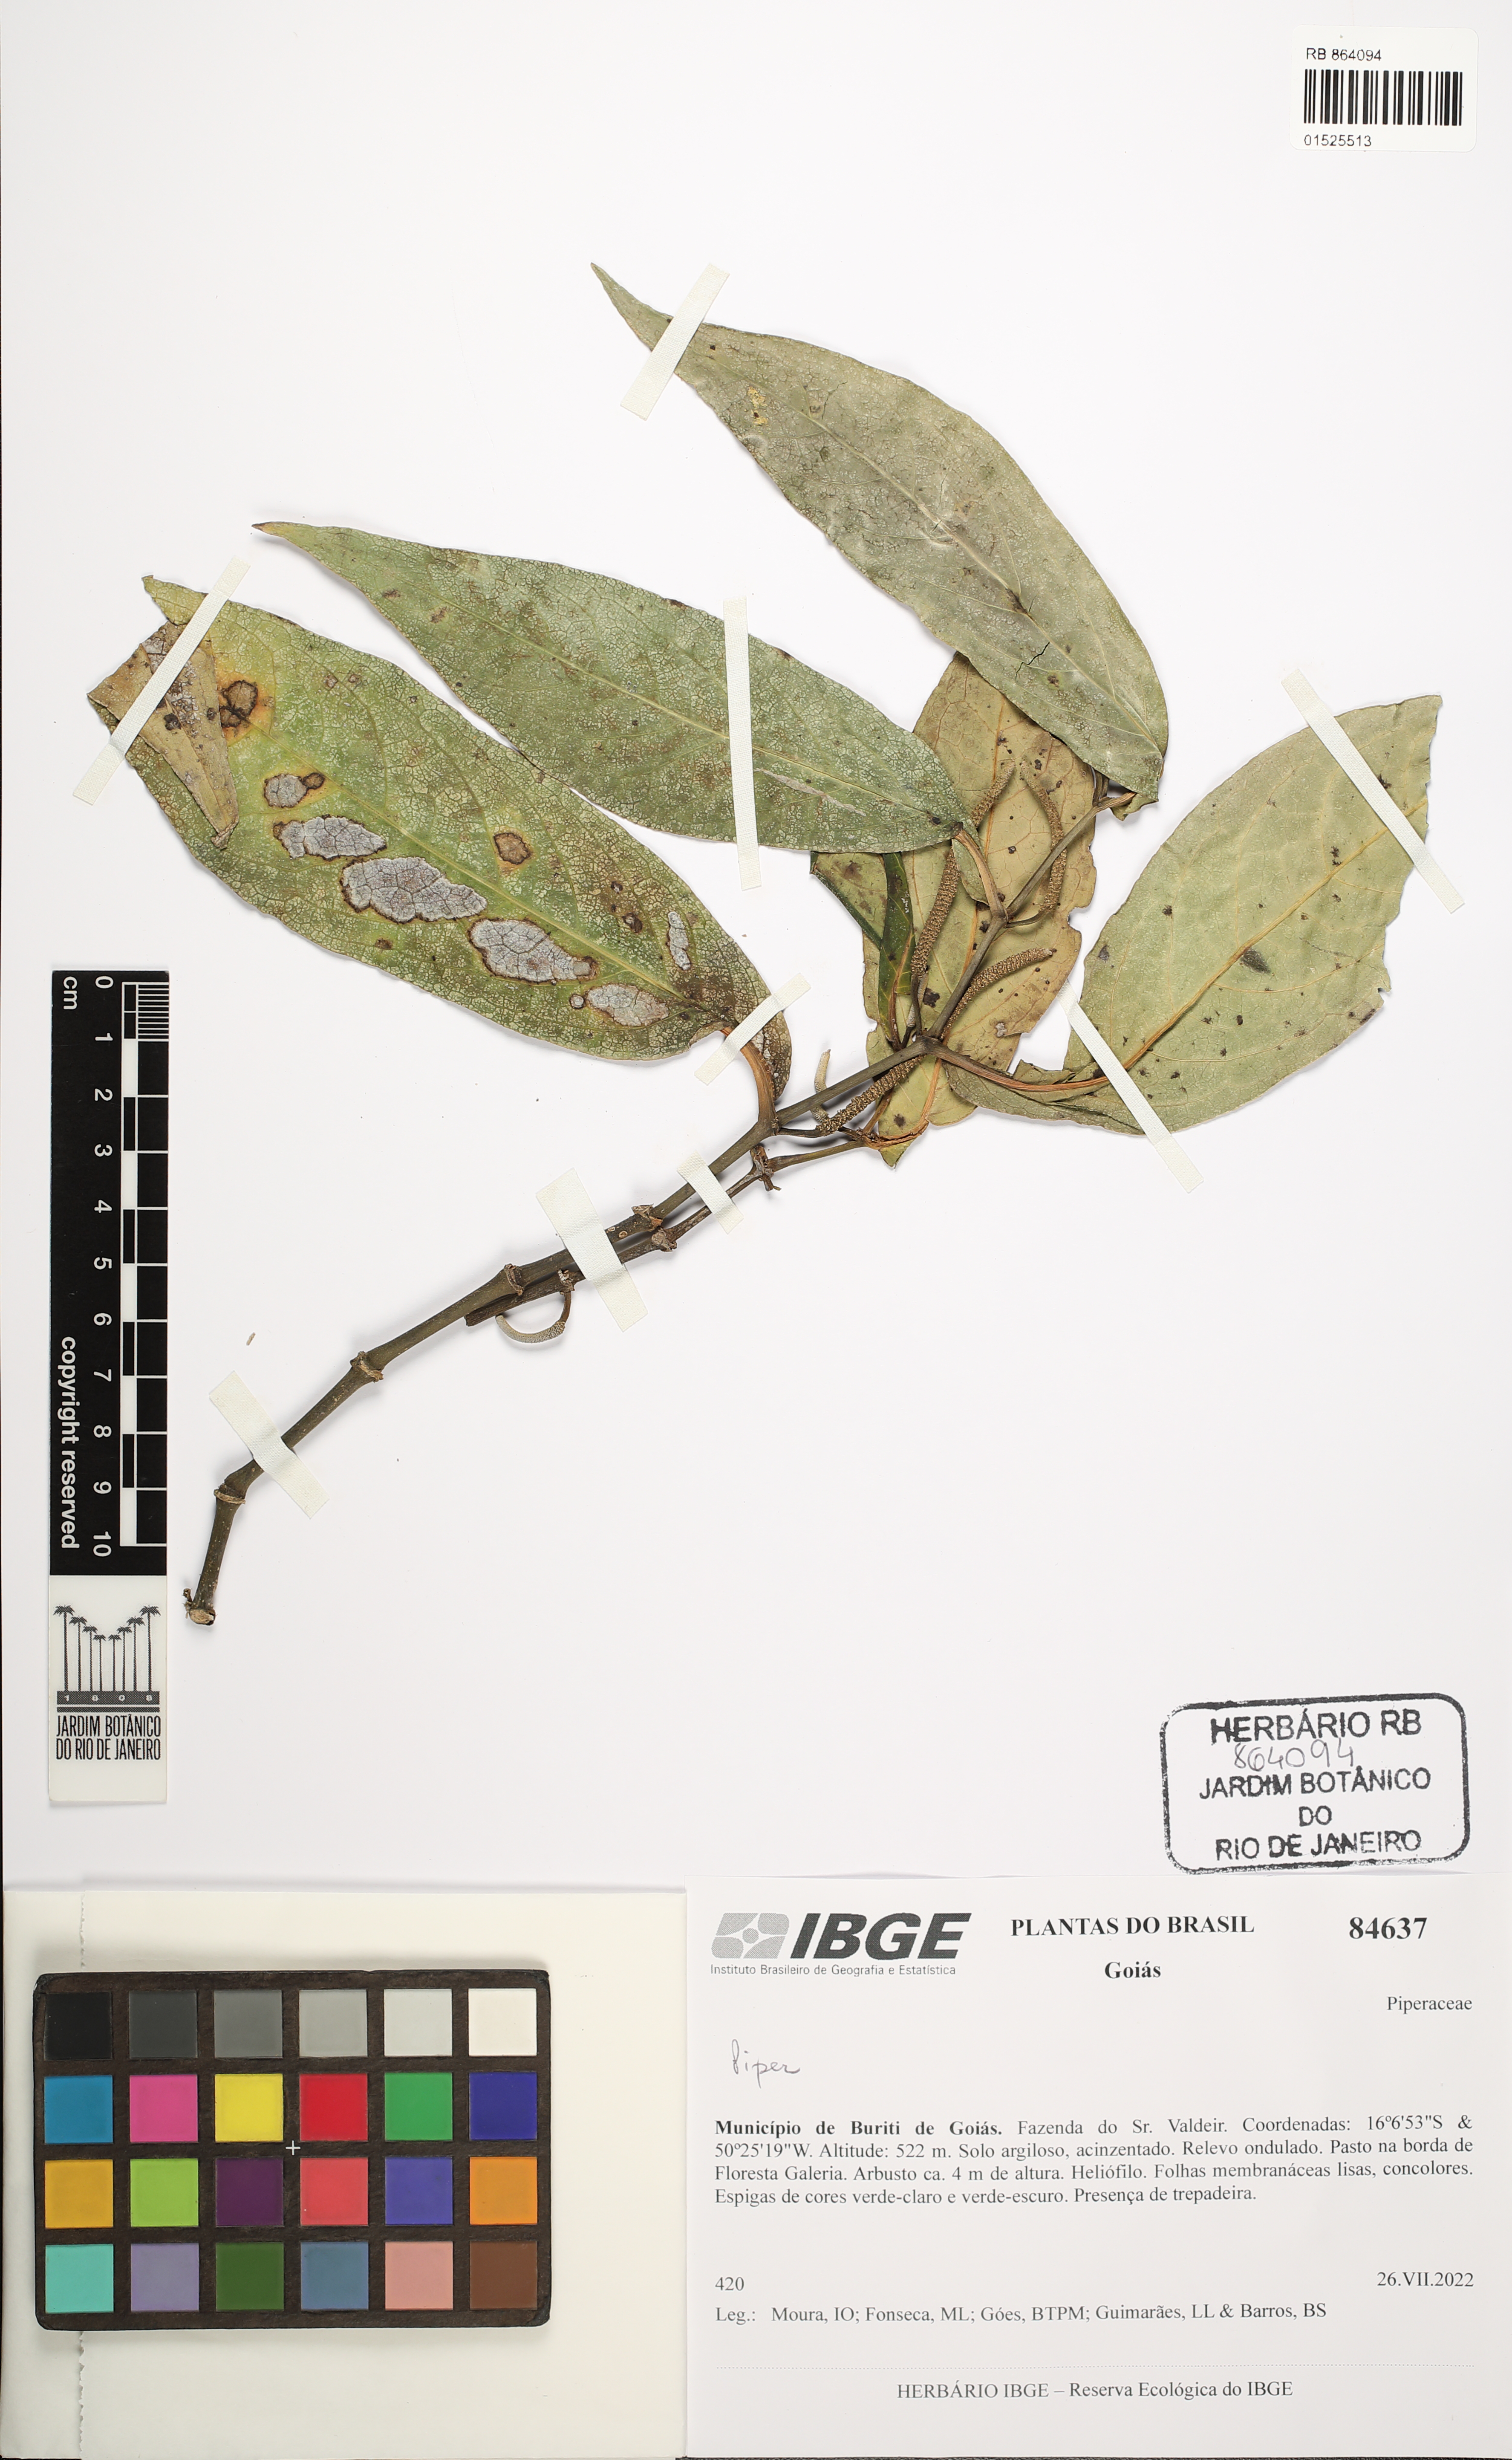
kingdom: Plantae
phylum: Tracheophyta
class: Magnoliopsida
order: Piperales
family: Piperaceae
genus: Piper
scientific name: Piper
